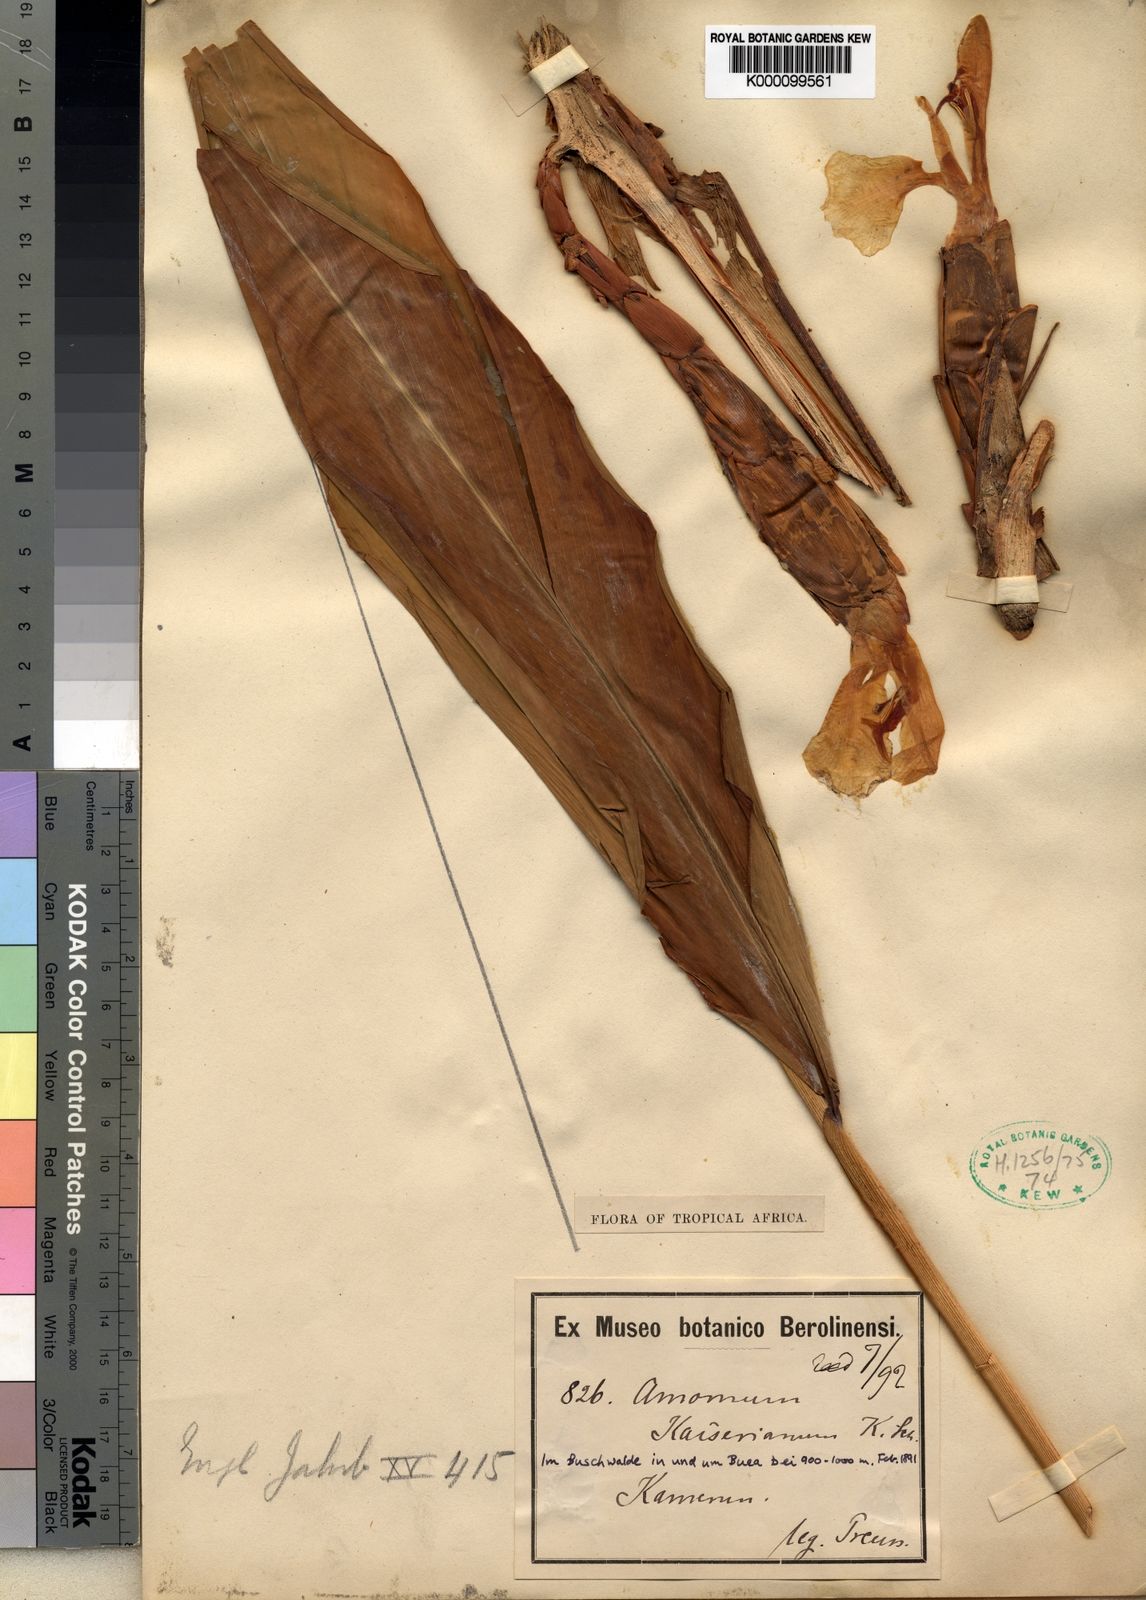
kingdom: Plantae
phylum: Tracheophyta
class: Liliopsida
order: Zingiberales
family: Zingiberaceae
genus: Aframomum
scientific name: Aframomum kayserianum
